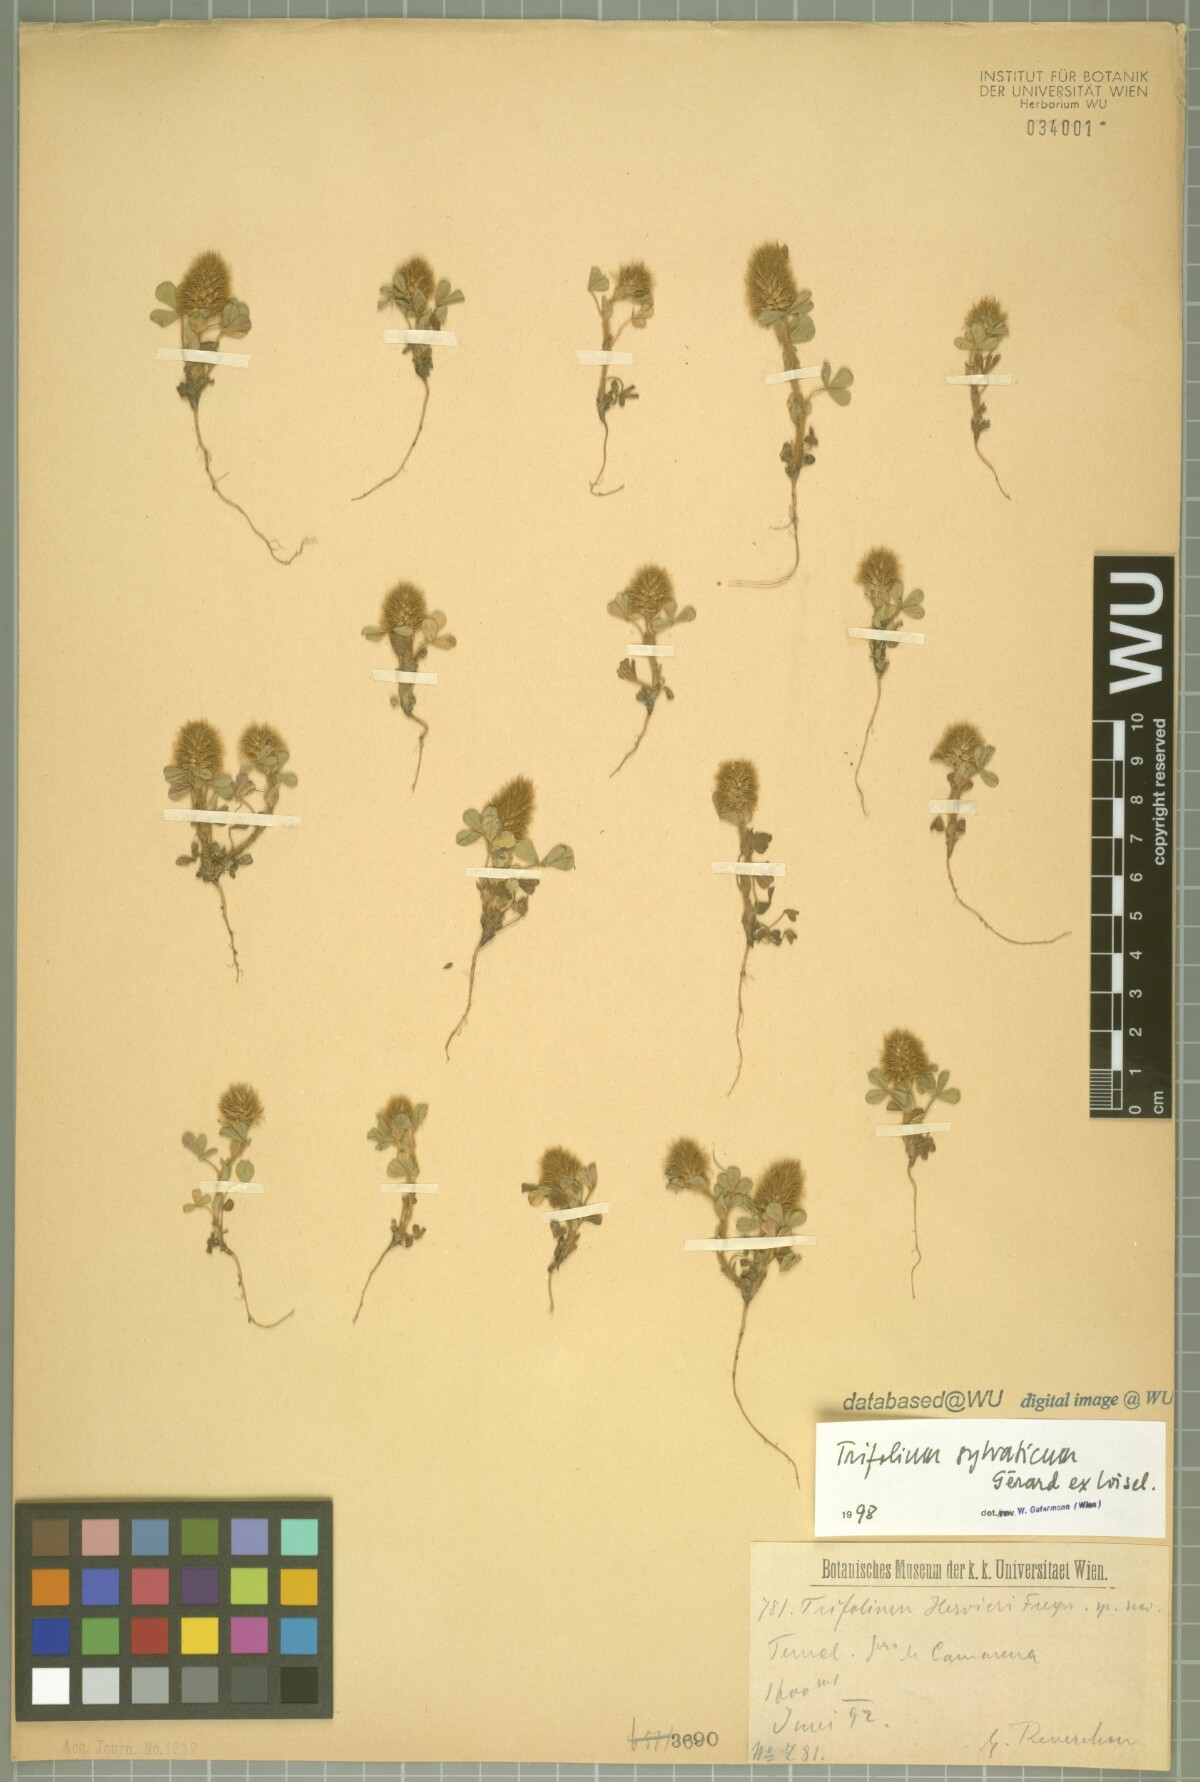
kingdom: Plantae
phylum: Tracheophyta
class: Magnoliopsida
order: Fabales
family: Fabaceae
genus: Trifolium
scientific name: Trifolium sylvaticum
